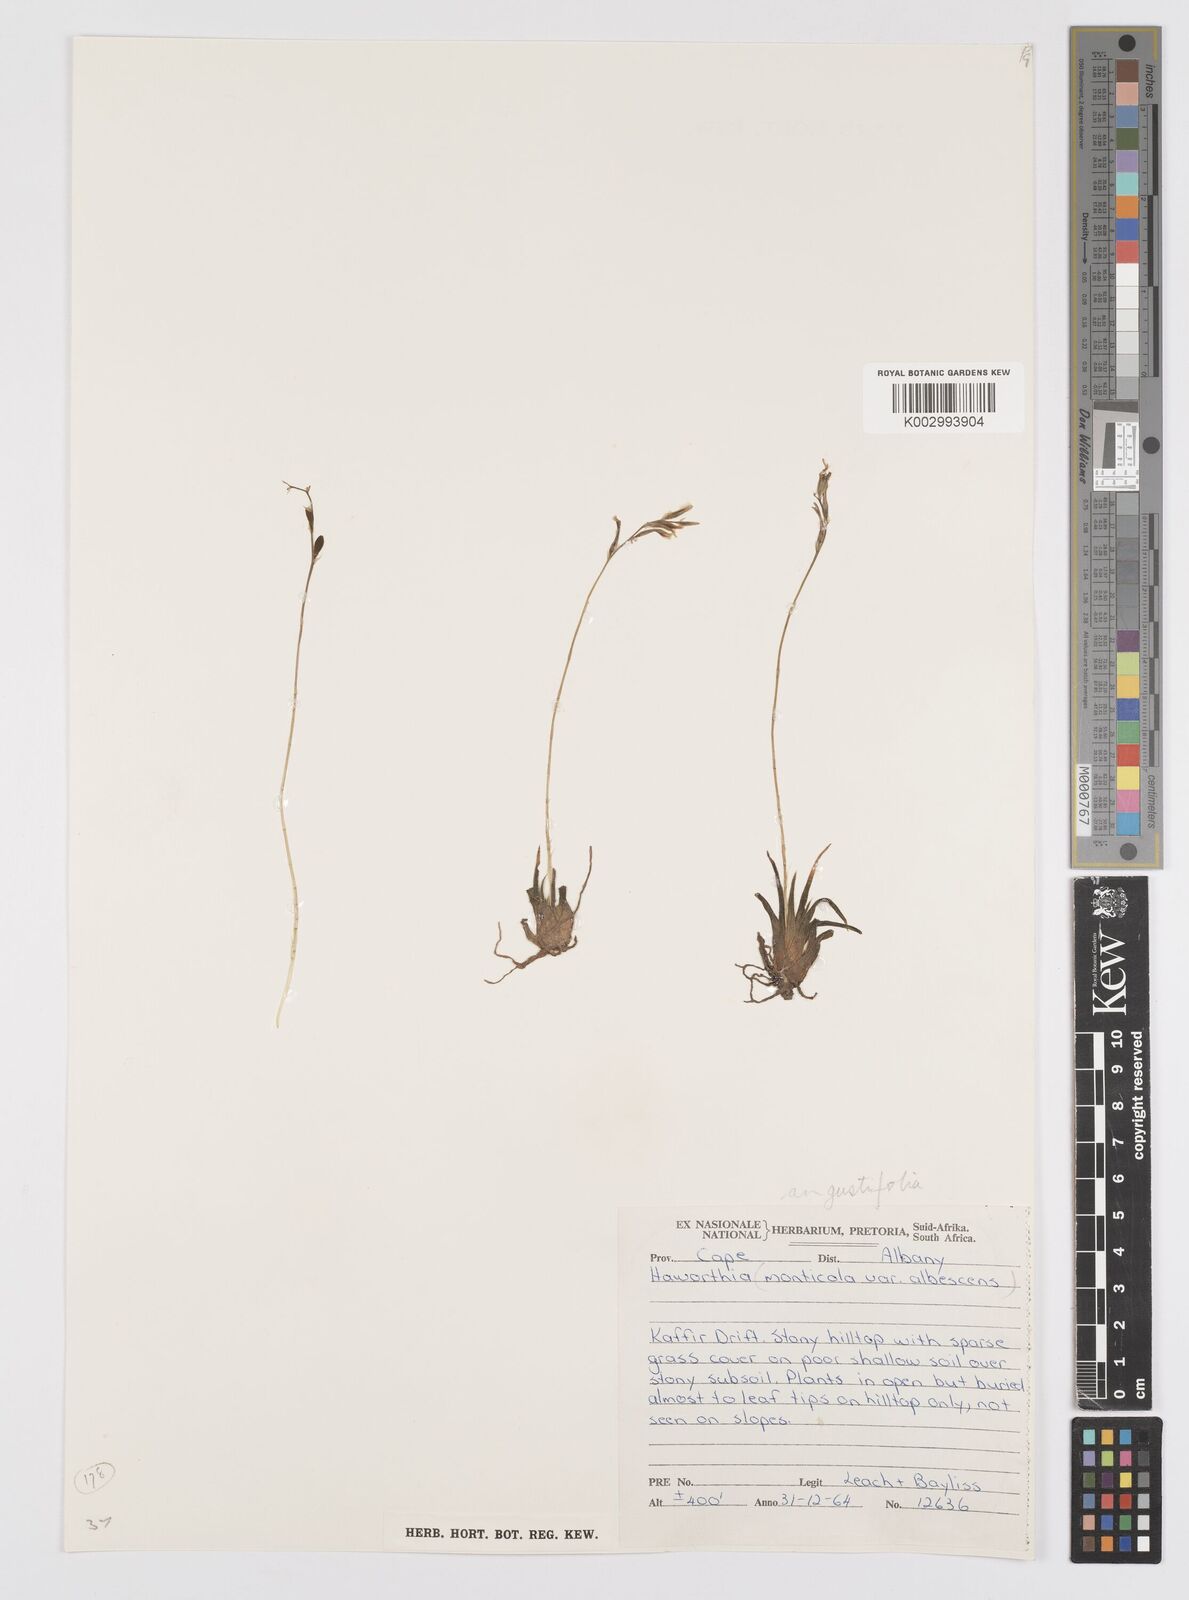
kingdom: Plantae
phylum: Tracheophyta
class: Liliopsida
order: Asparagales
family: Asphodelaceae
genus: Haworthia
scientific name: Haworthia
